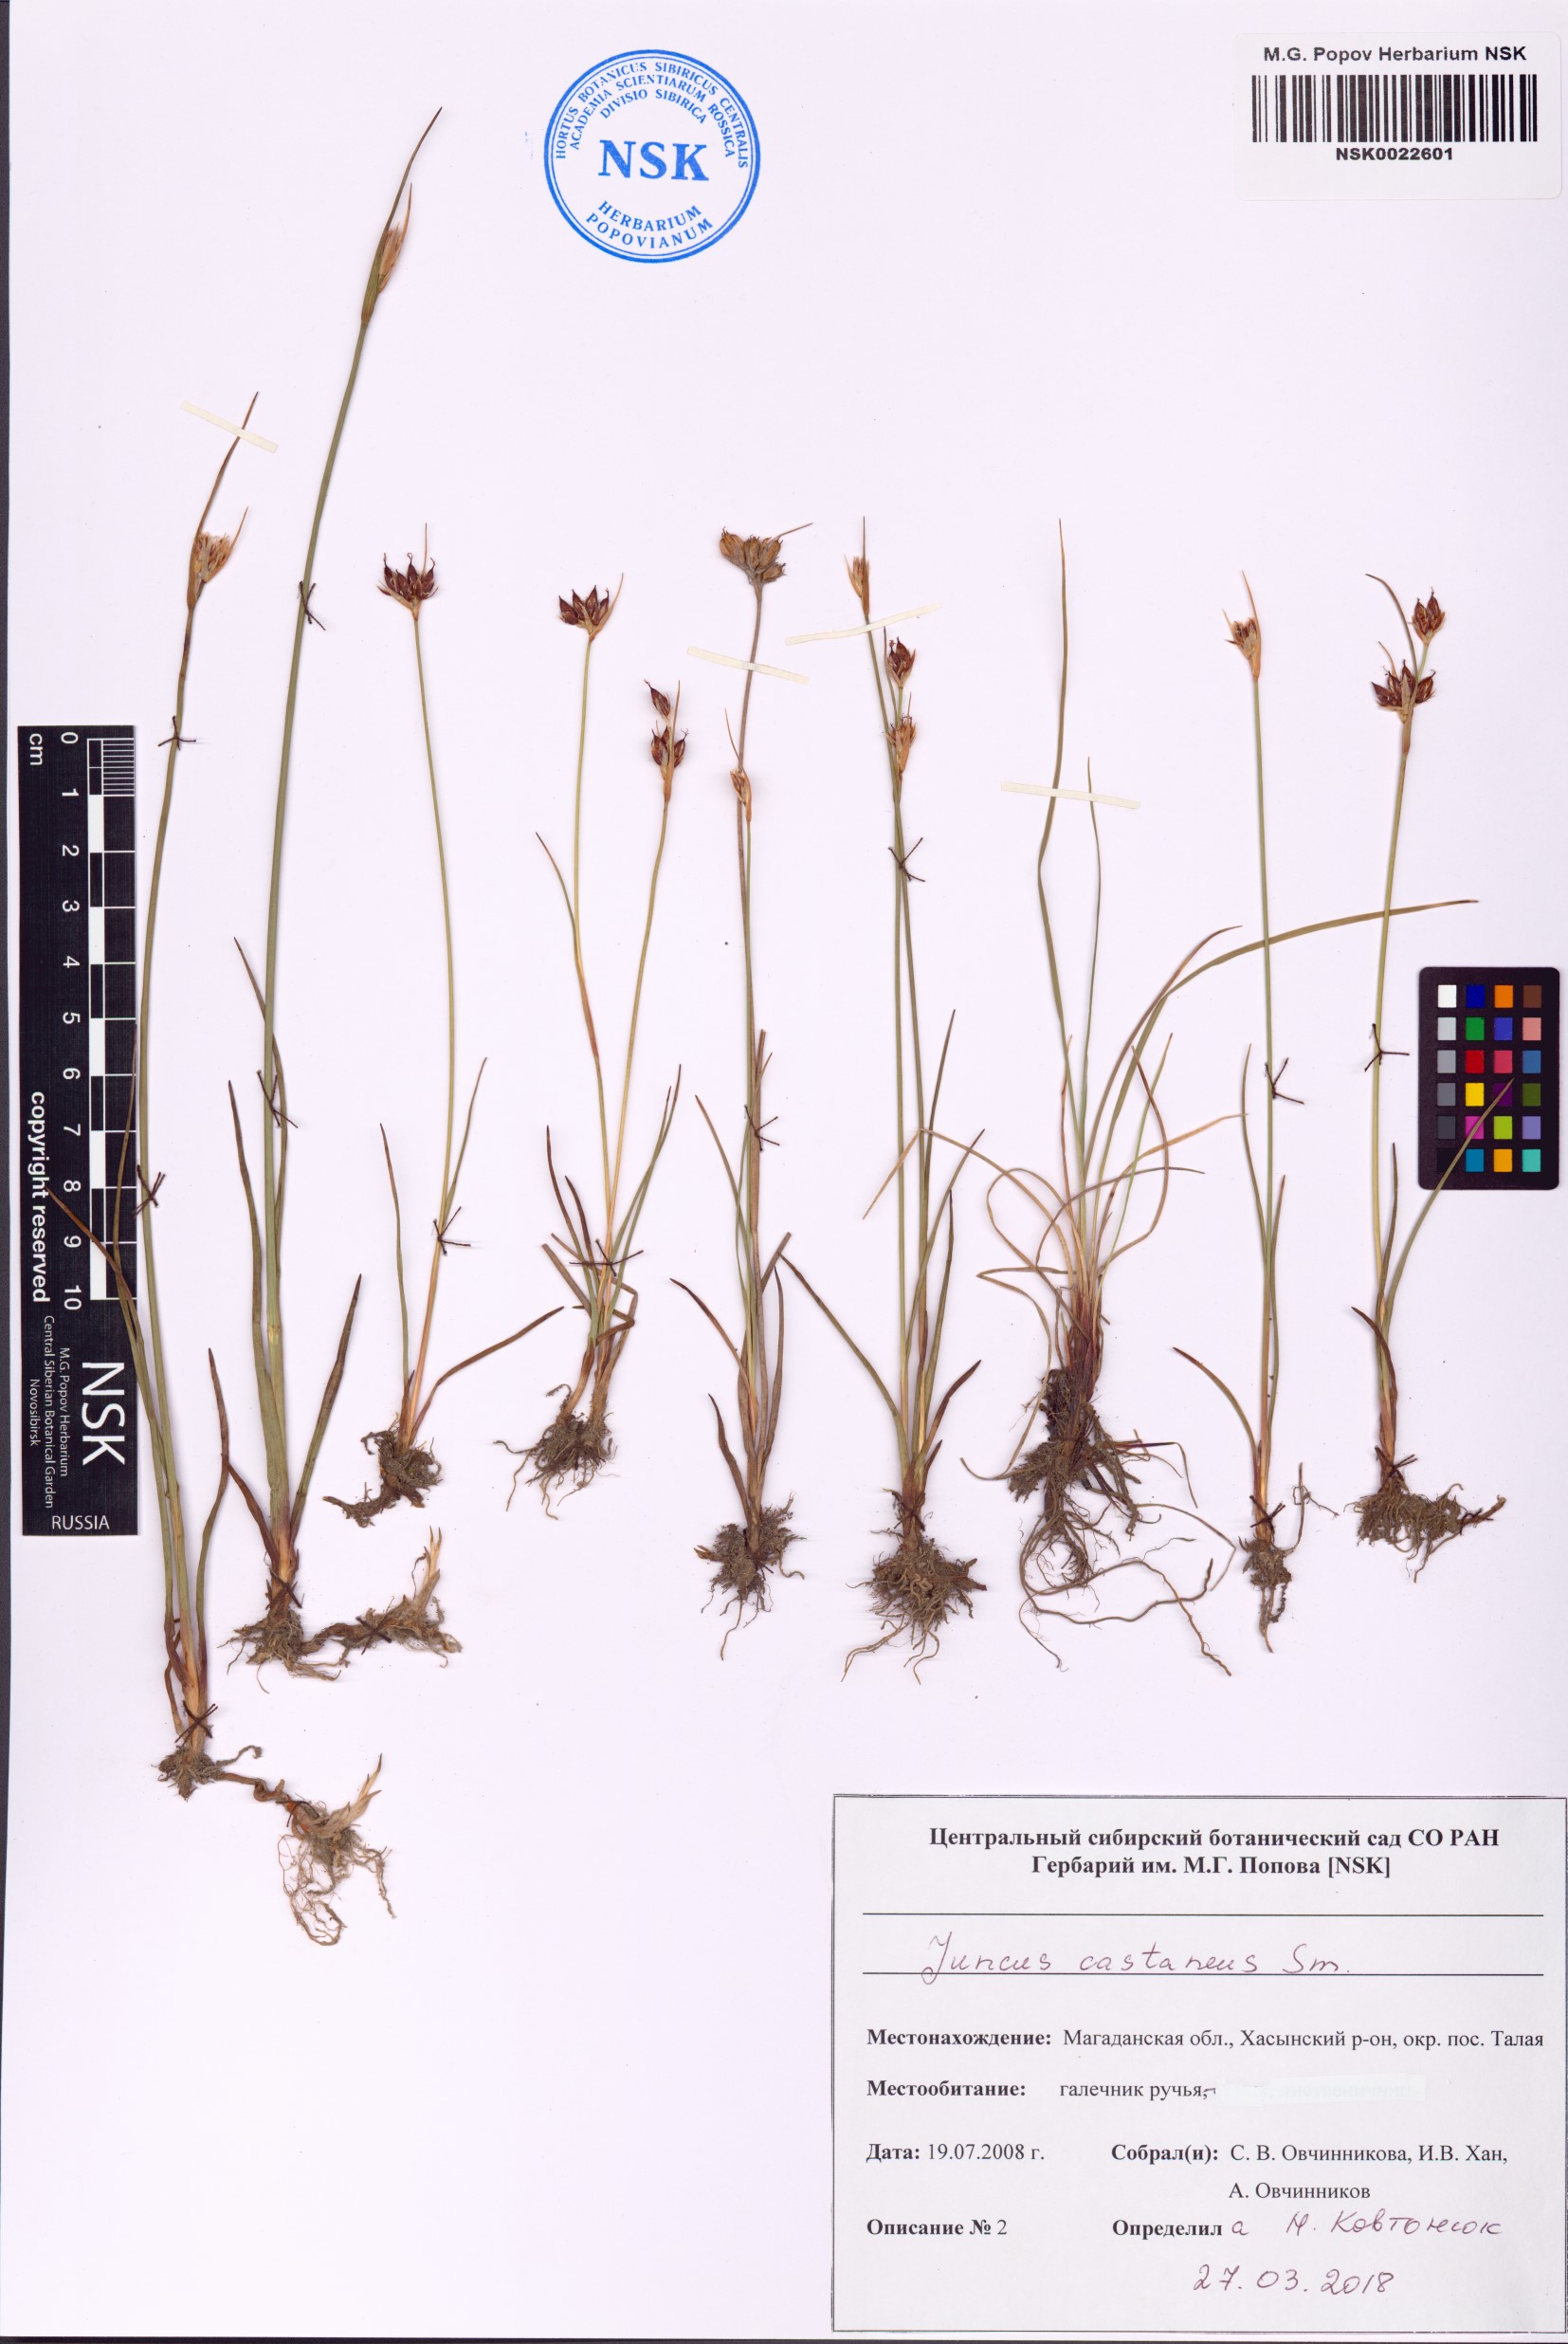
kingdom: Plantae
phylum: Tracheophyta
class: Liliopsida
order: Poales
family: Juncaceae
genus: Juncus
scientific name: Juncus castaneus
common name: Chestnut rush
